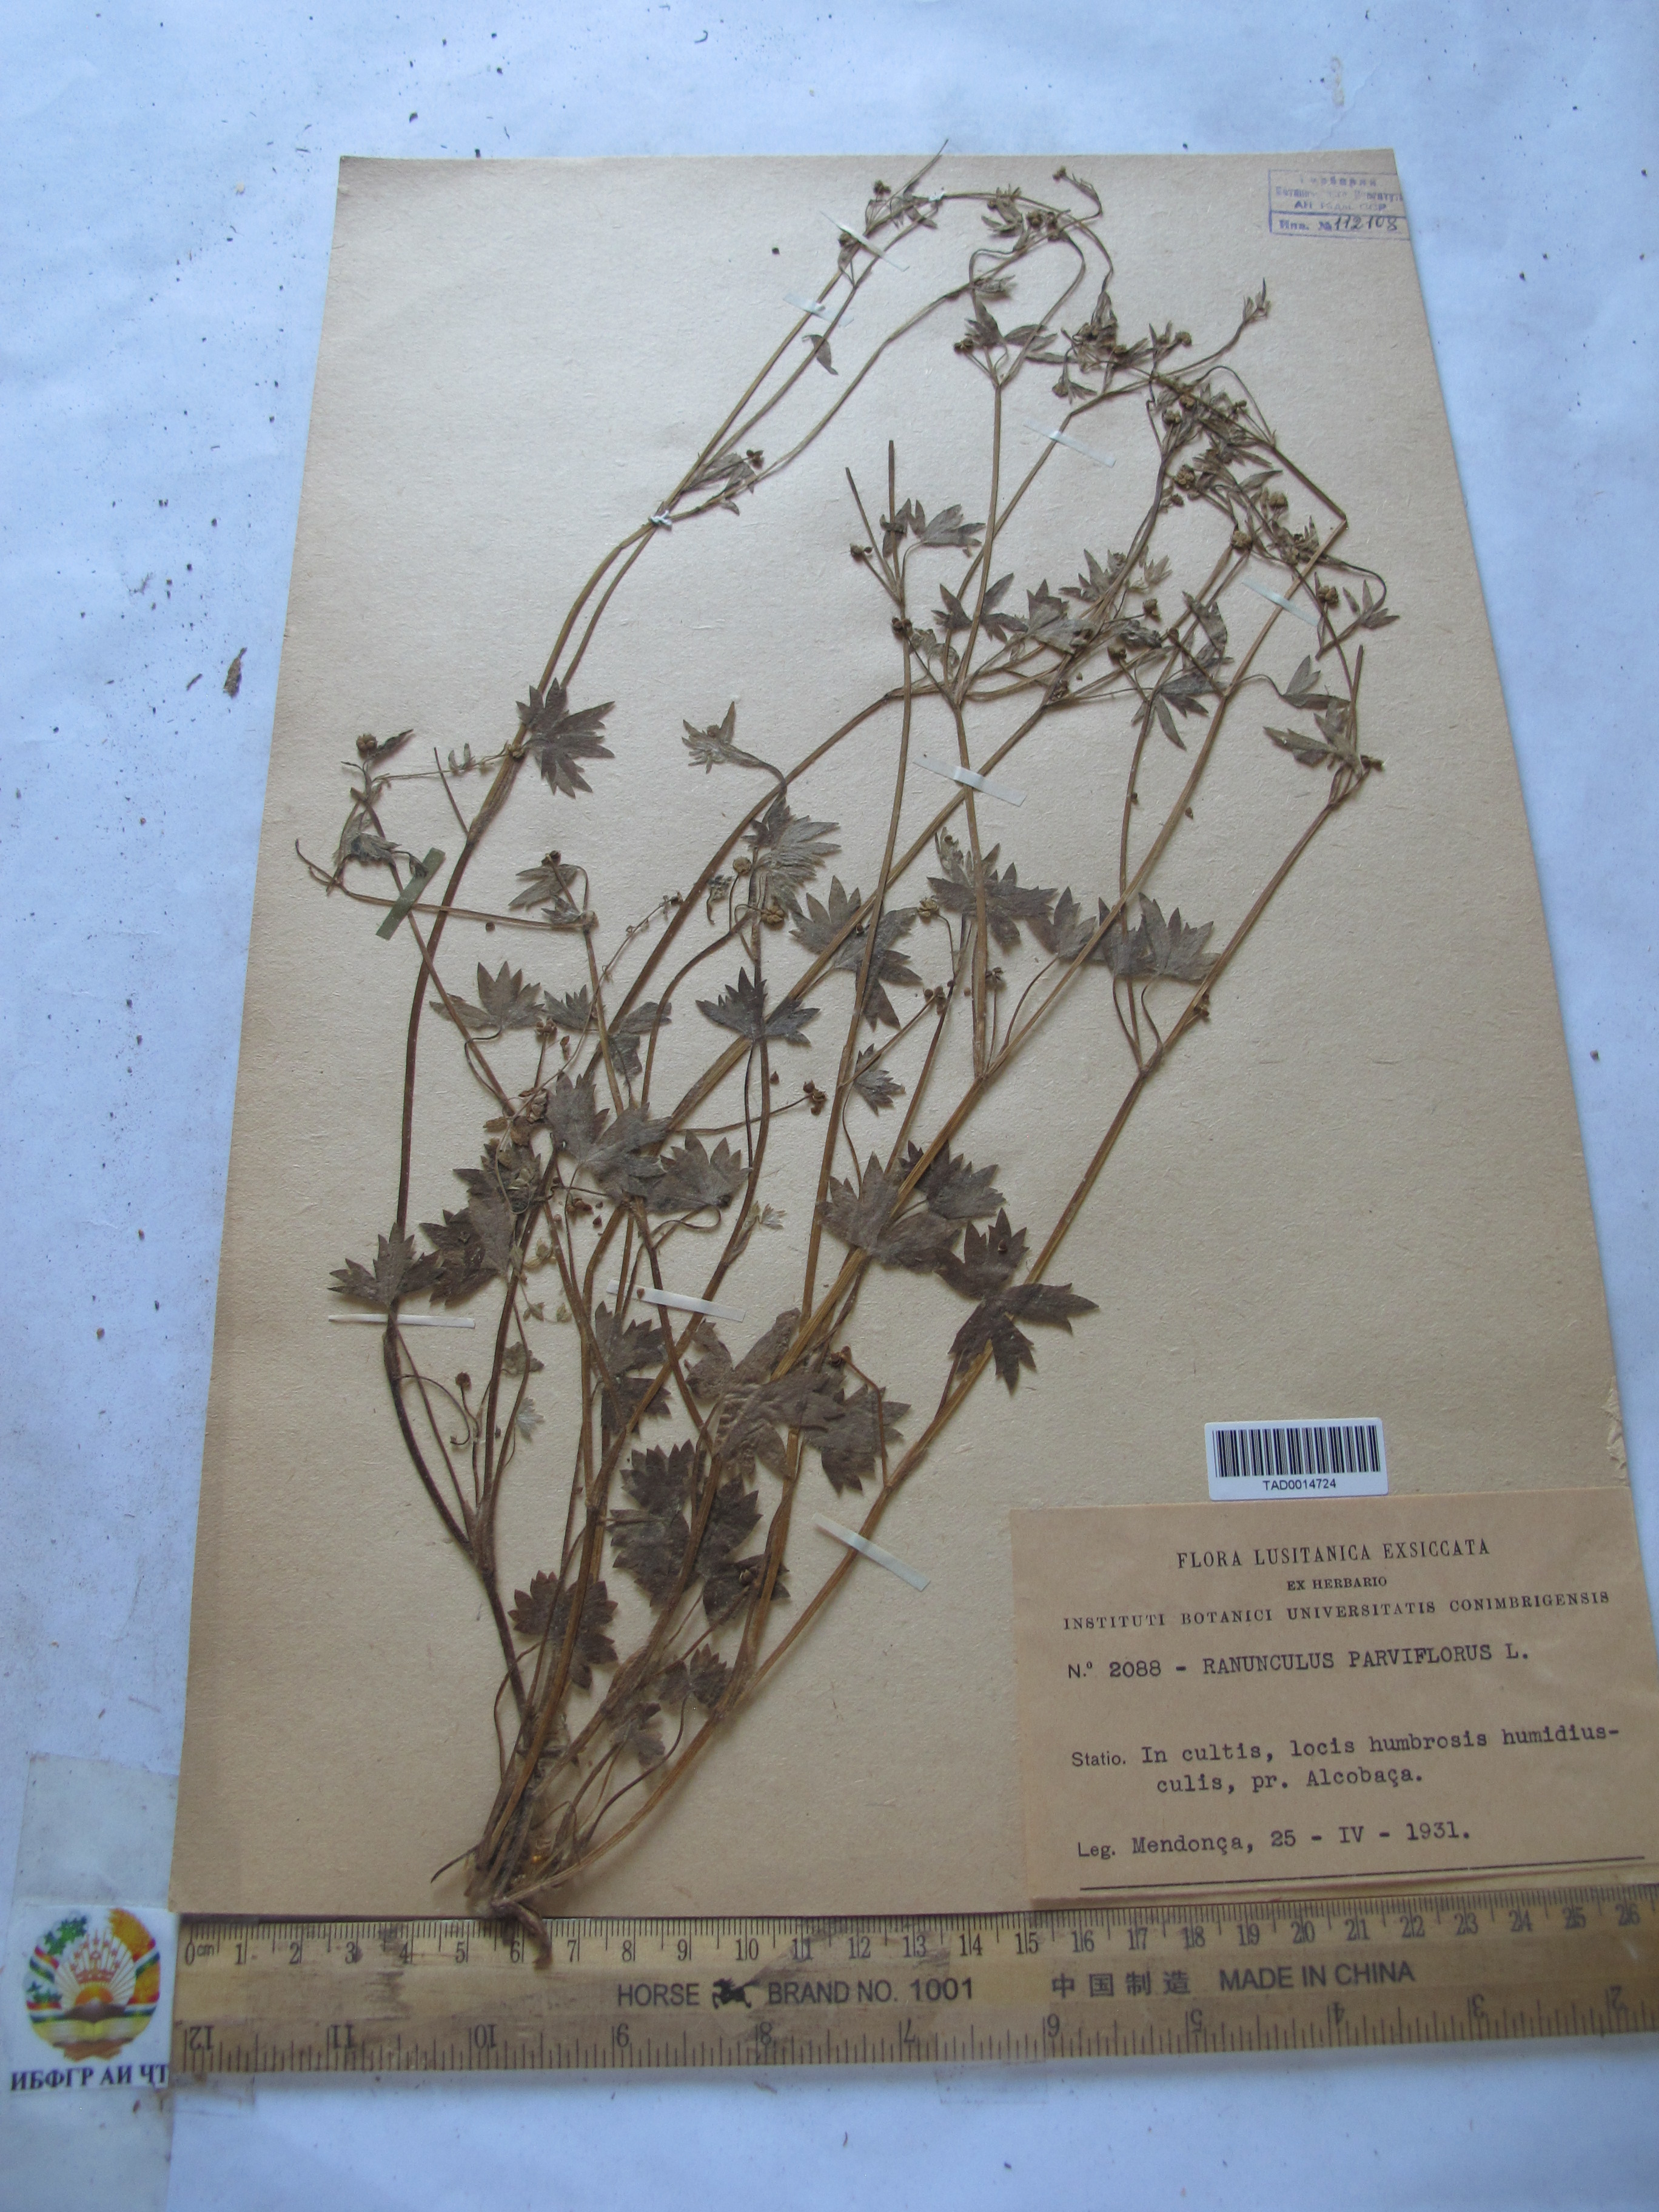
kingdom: Plantae
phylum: Tracheophyta
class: Magnoliopsida
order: Ranunculales
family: Ranunculaceae
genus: Ranunculus
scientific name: Ranunculus parviflorus
